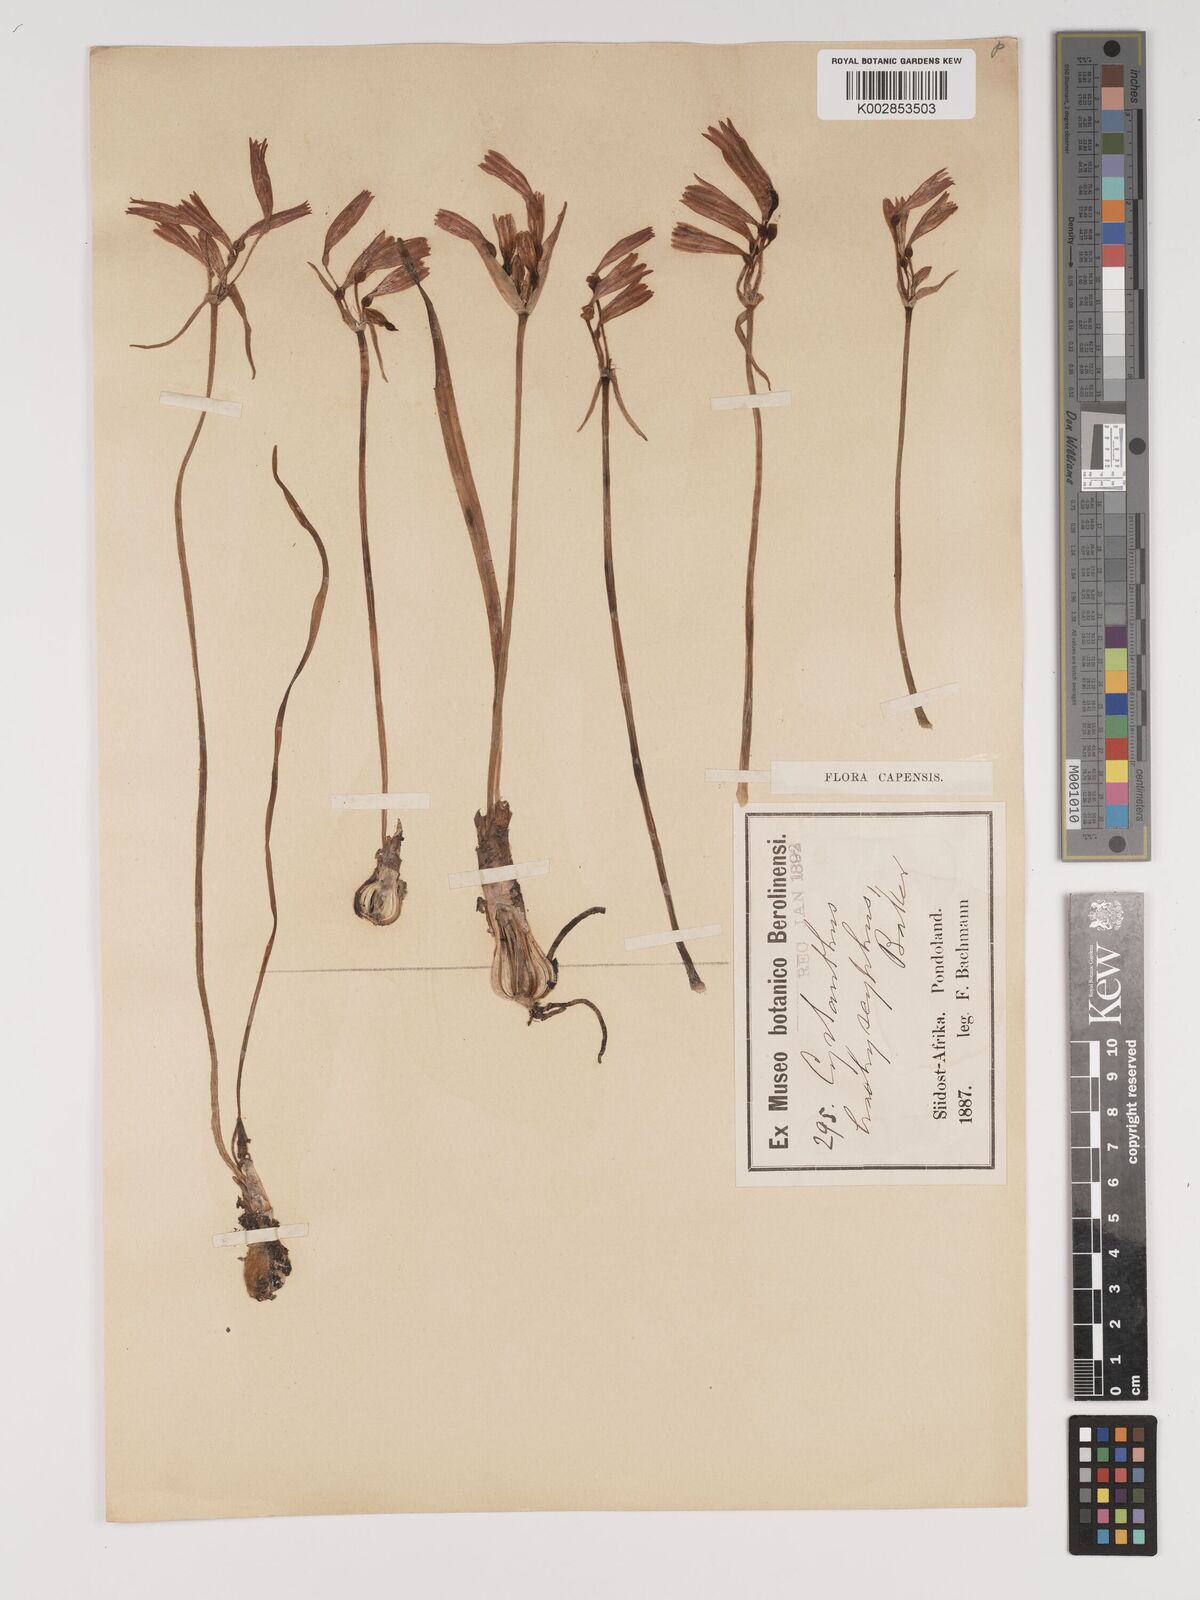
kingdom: Plantae
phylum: Tracheophyta
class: Liliopsida
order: Asparagales
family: Amaryllidaceae
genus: Cyrtanthus
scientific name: Cyrtanthus brachyscyphus
